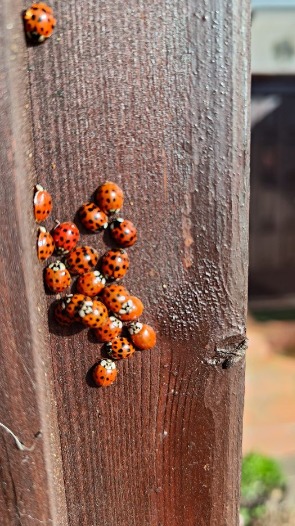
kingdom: Animalia
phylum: Arthropoda
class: Insecta
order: Coleoptera
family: Coccinellidae
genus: Harmonia
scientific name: Harmonia axyridis
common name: Harlekinmariehøne
